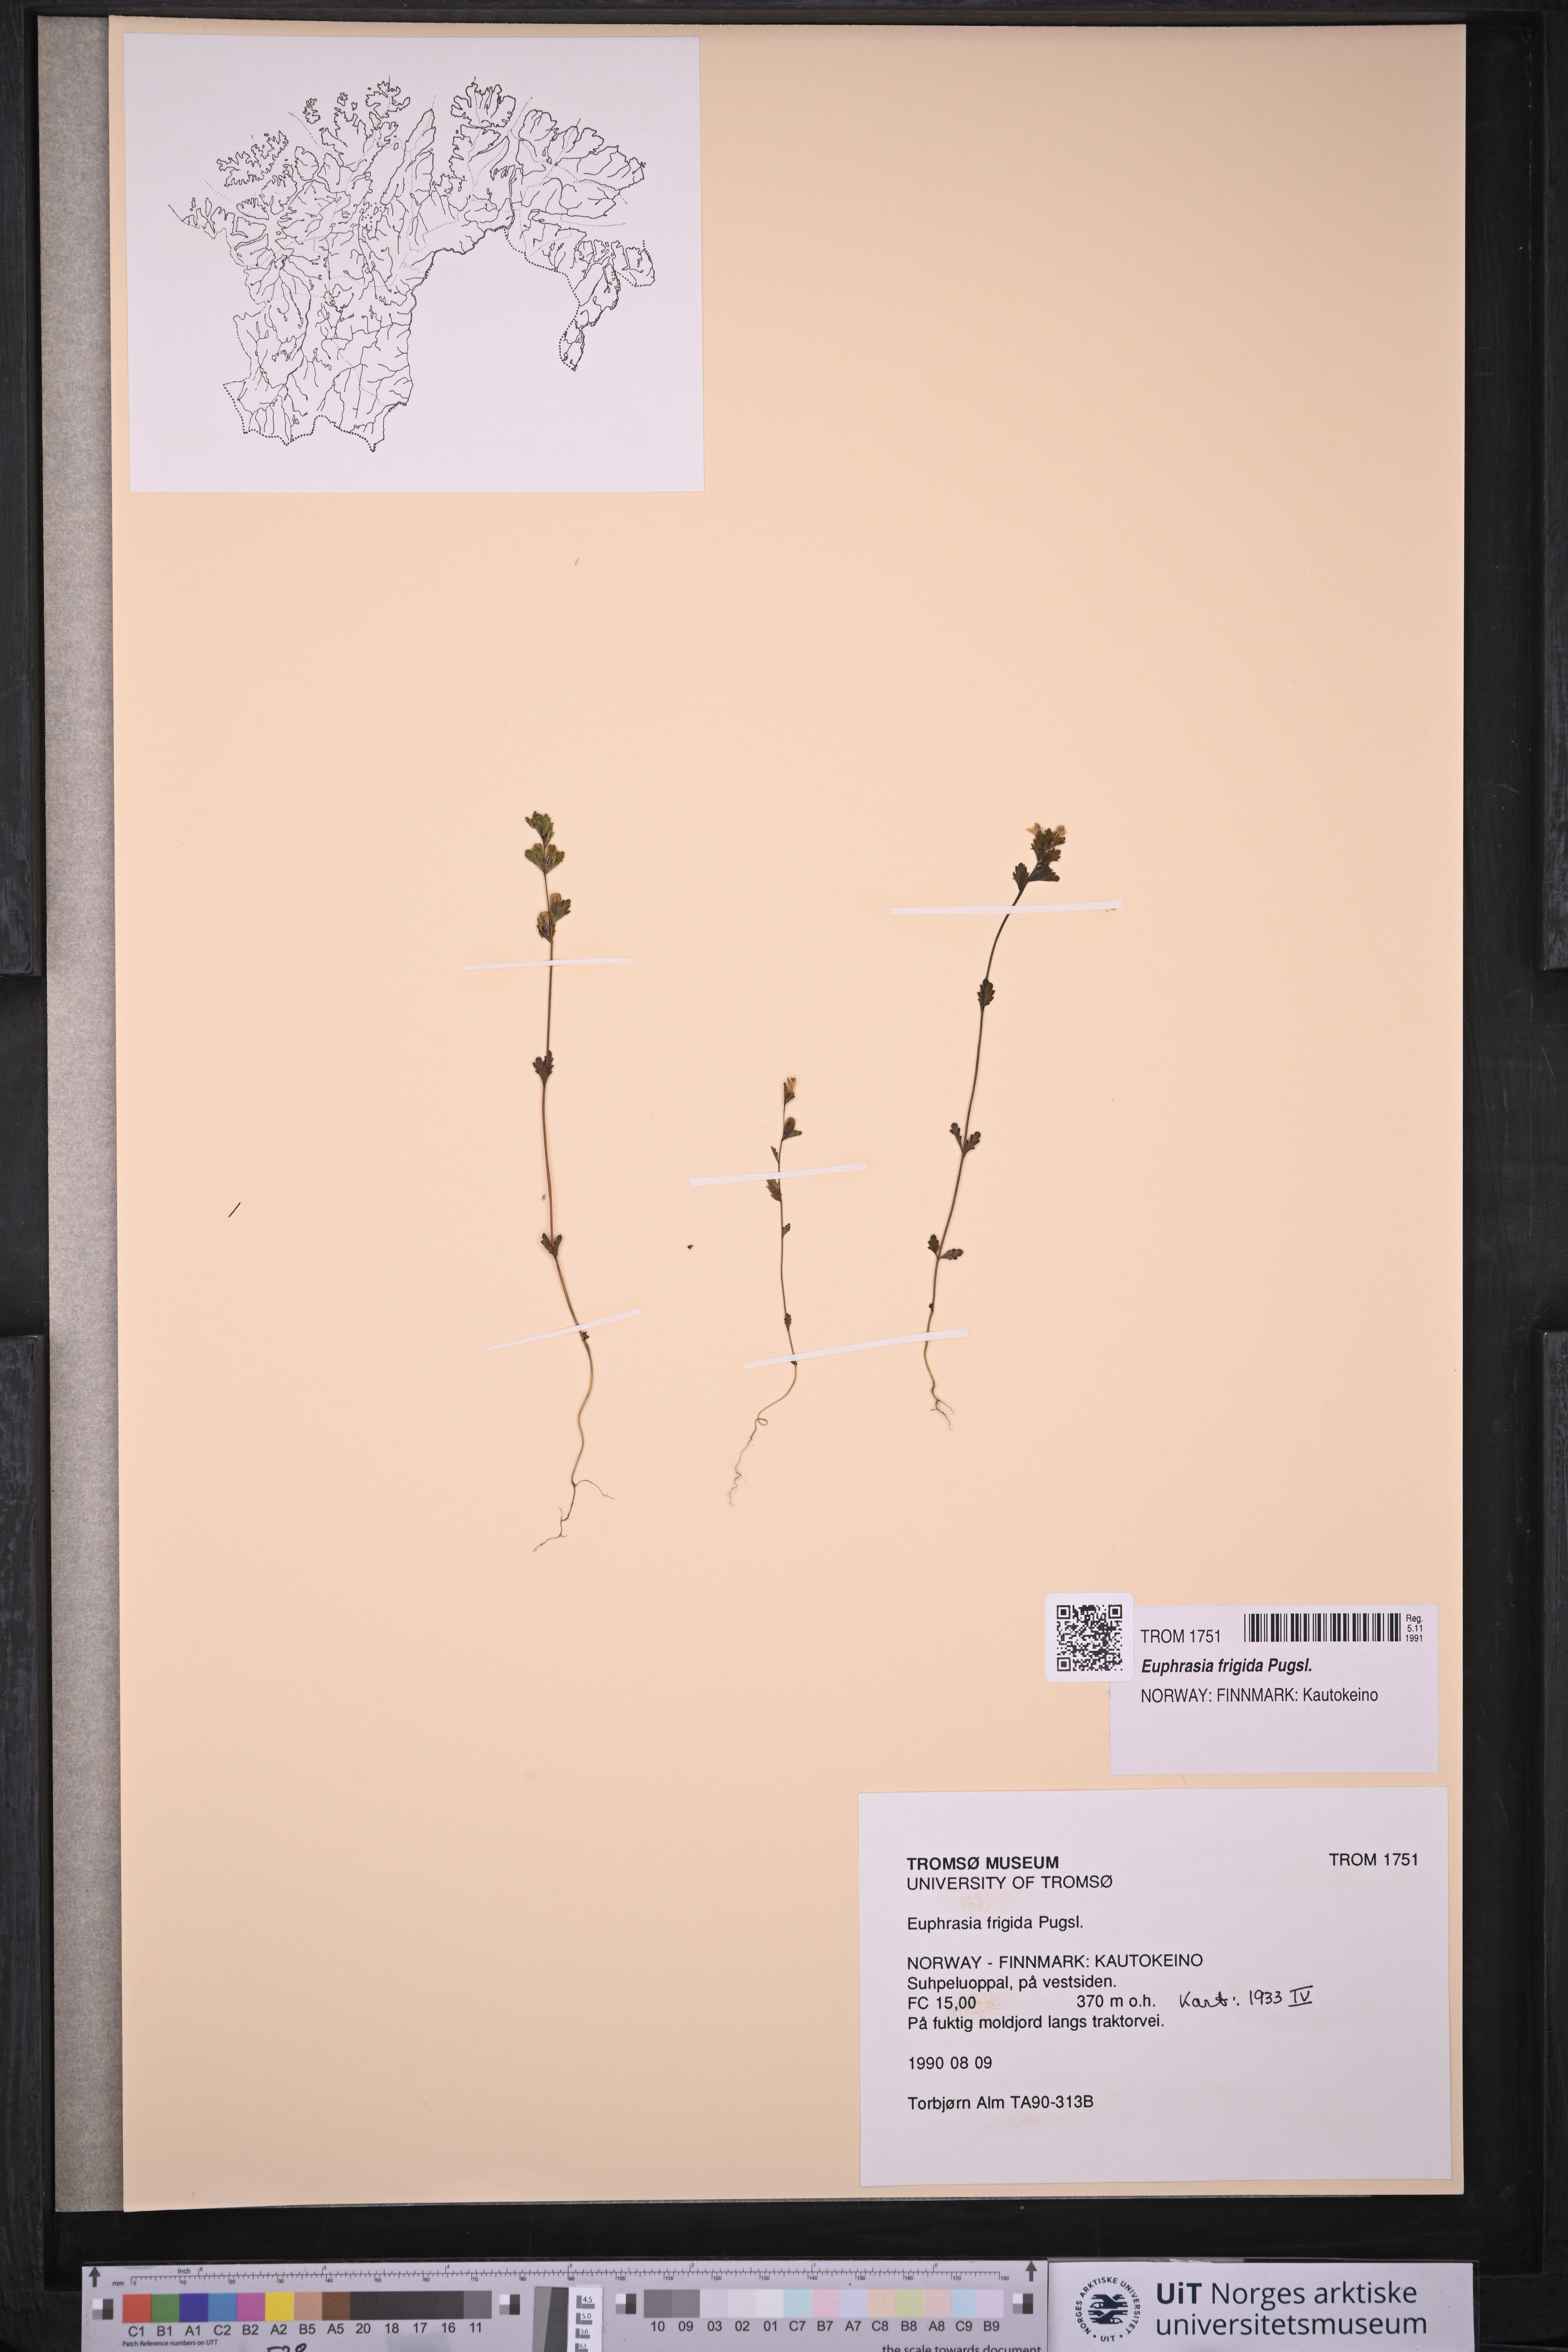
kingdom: Plantae
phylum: Tracheophyta
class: Magnoliopsida
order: Lamiales
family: Orobanchaceae
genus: Euphrasia
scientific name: Euphrasia frigida
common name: An eyebright
